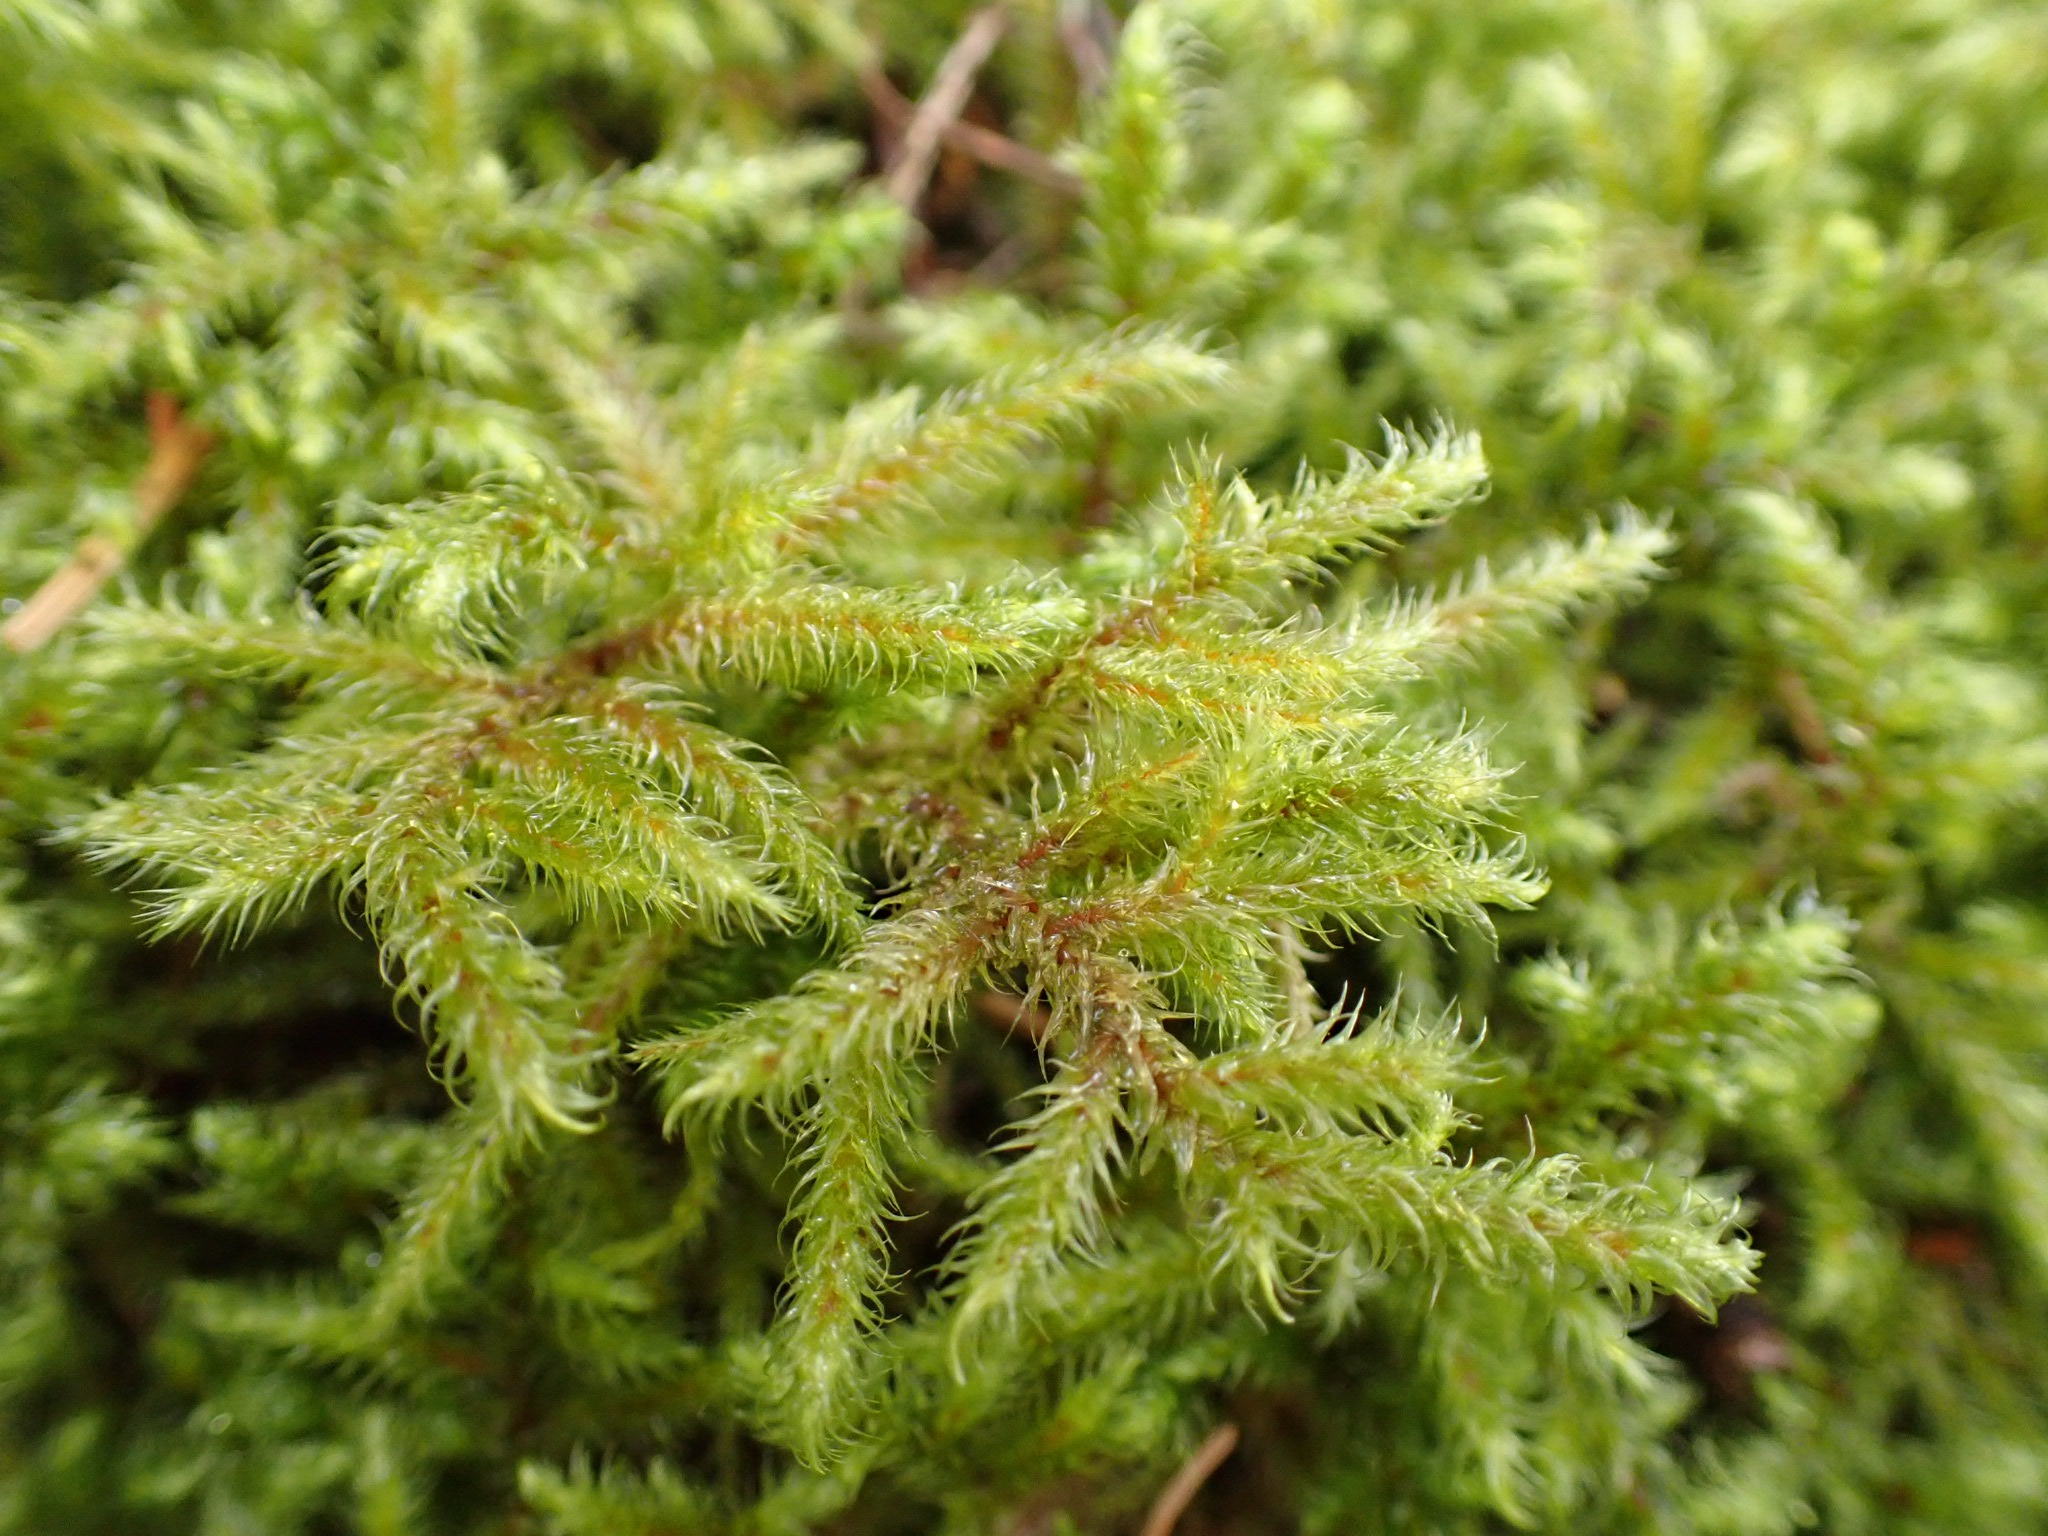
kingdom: Plantae
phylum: Bryophyta
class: Bryopsida
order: Hypnales
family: Hylocomiaceae
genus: Rhytidiadelphus
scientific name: Rhytidiadelphus loreus
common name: Ulvefod-kransemos
